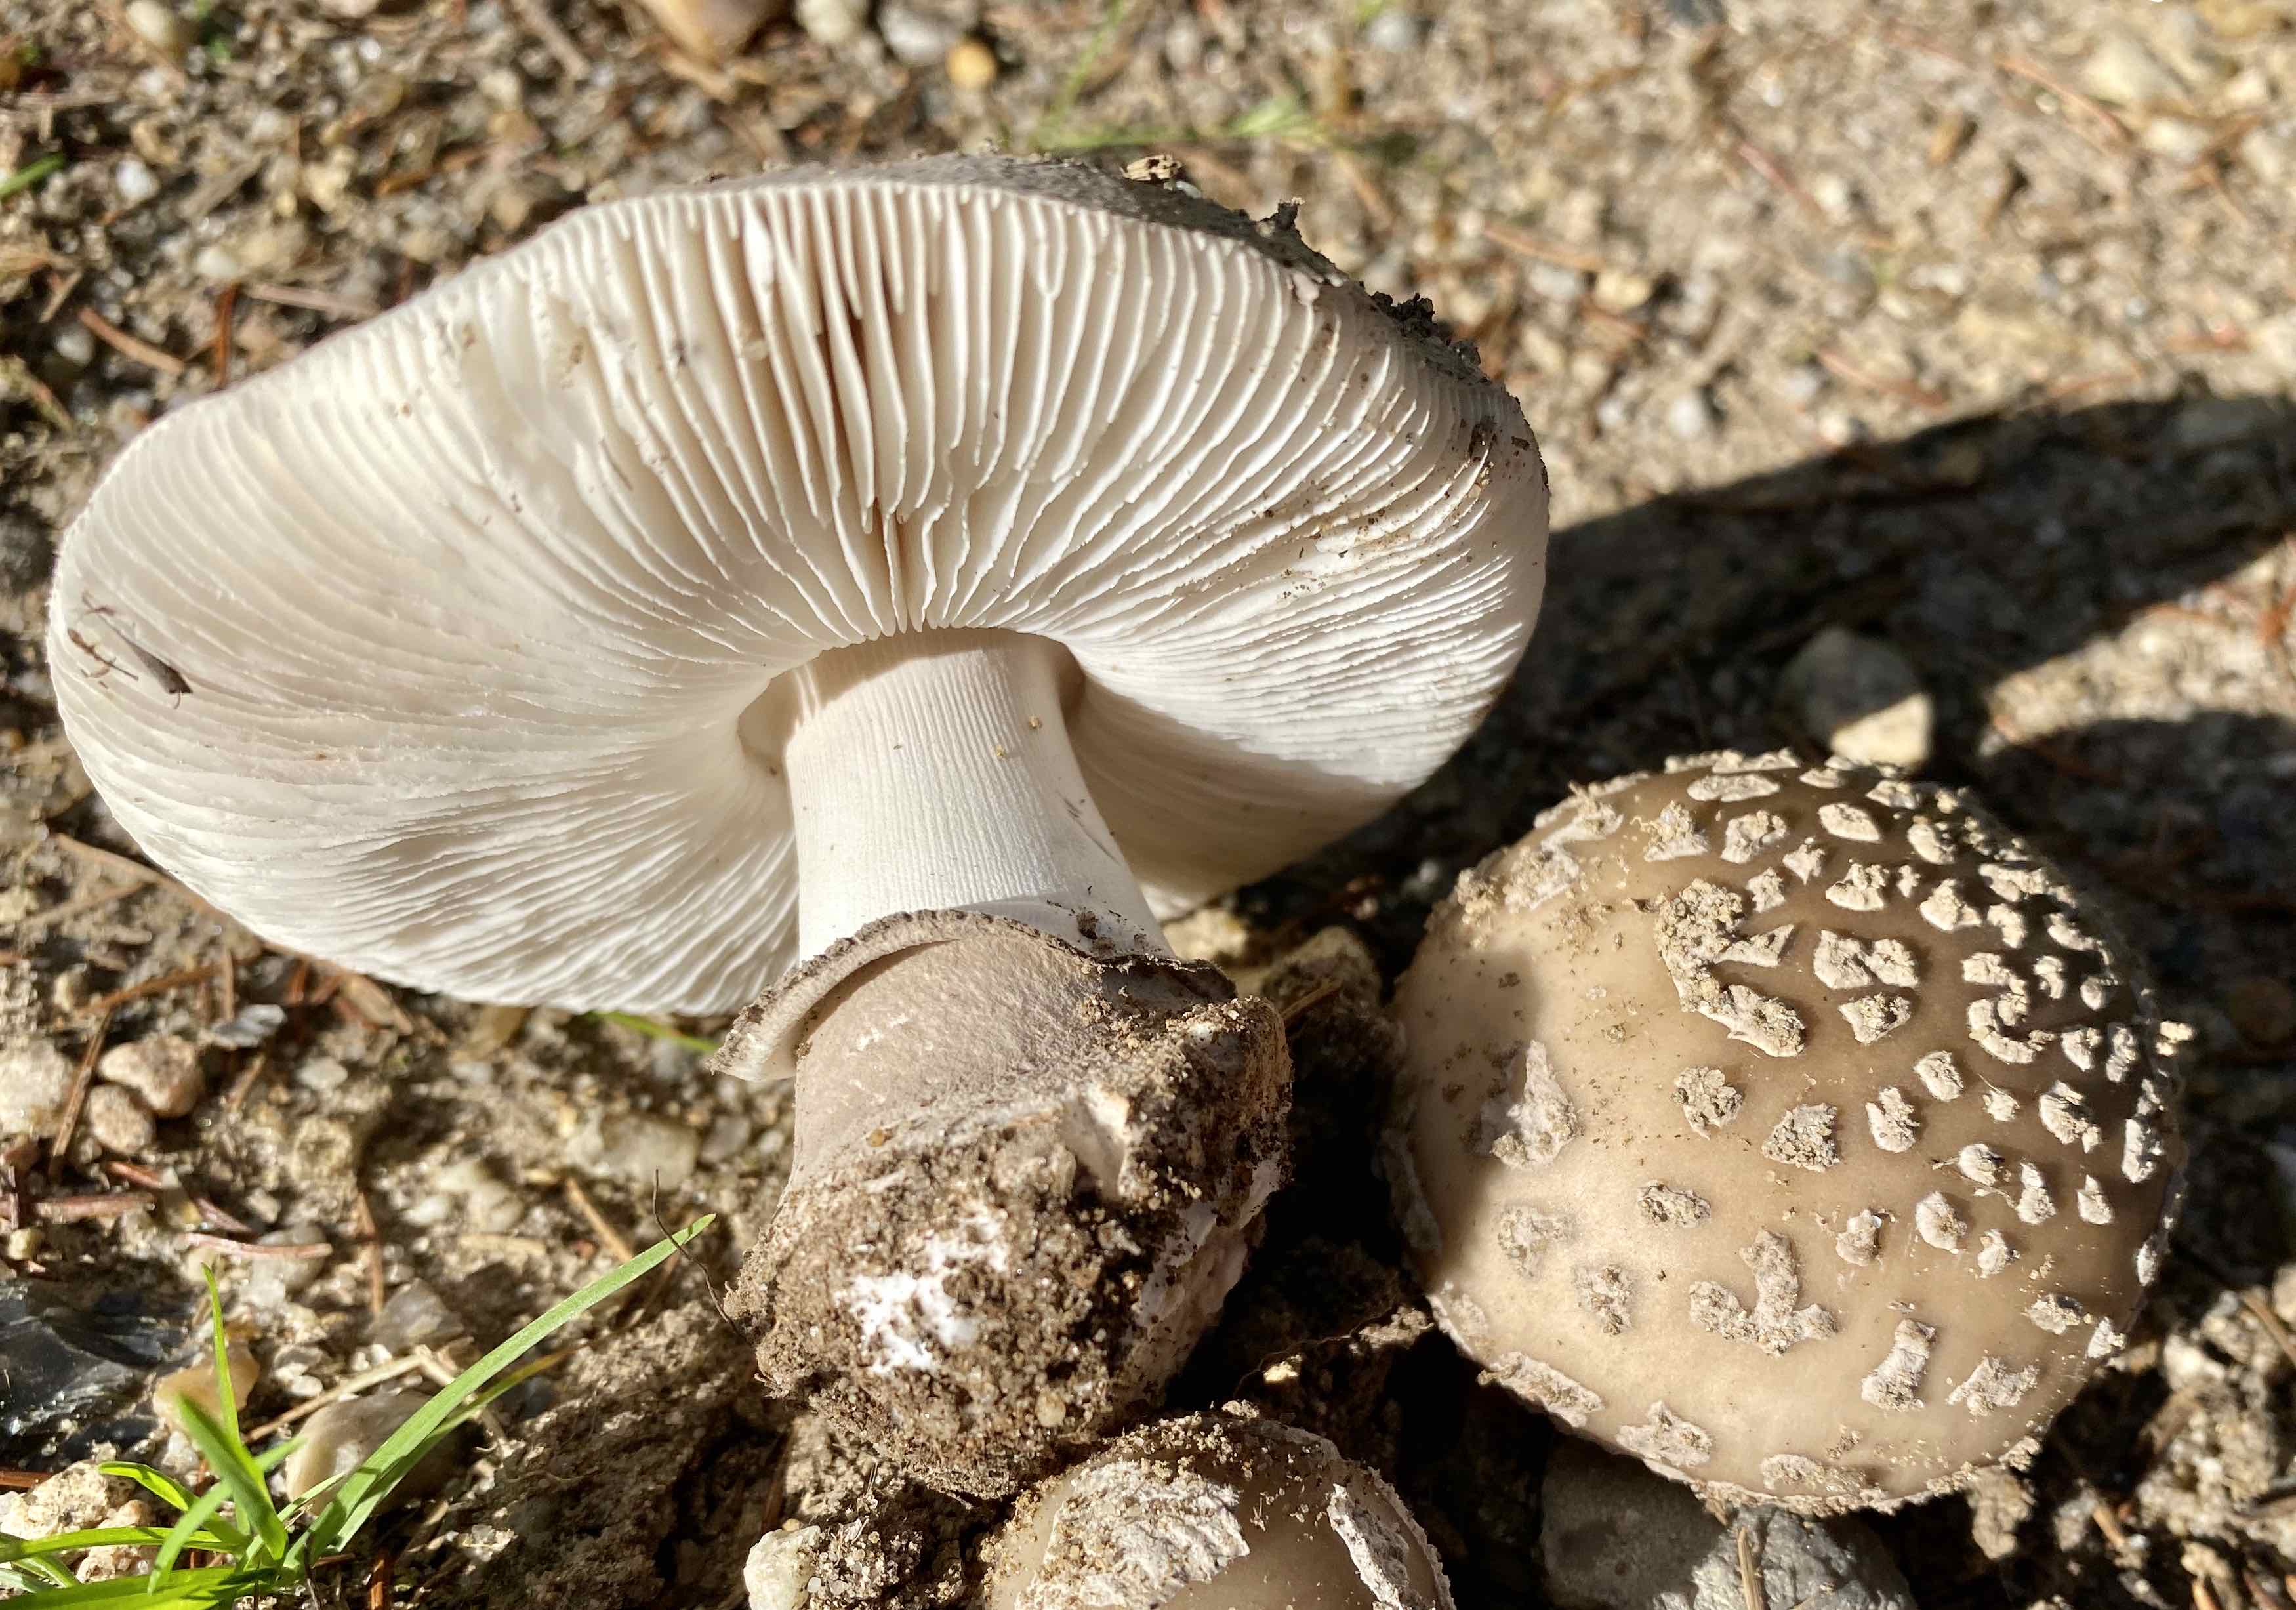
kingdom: Fungi
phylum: Basidiomycota
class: Agaricomycetes
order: Agaricales
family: Amanitaceae
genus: Amanita
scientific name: Amanita
